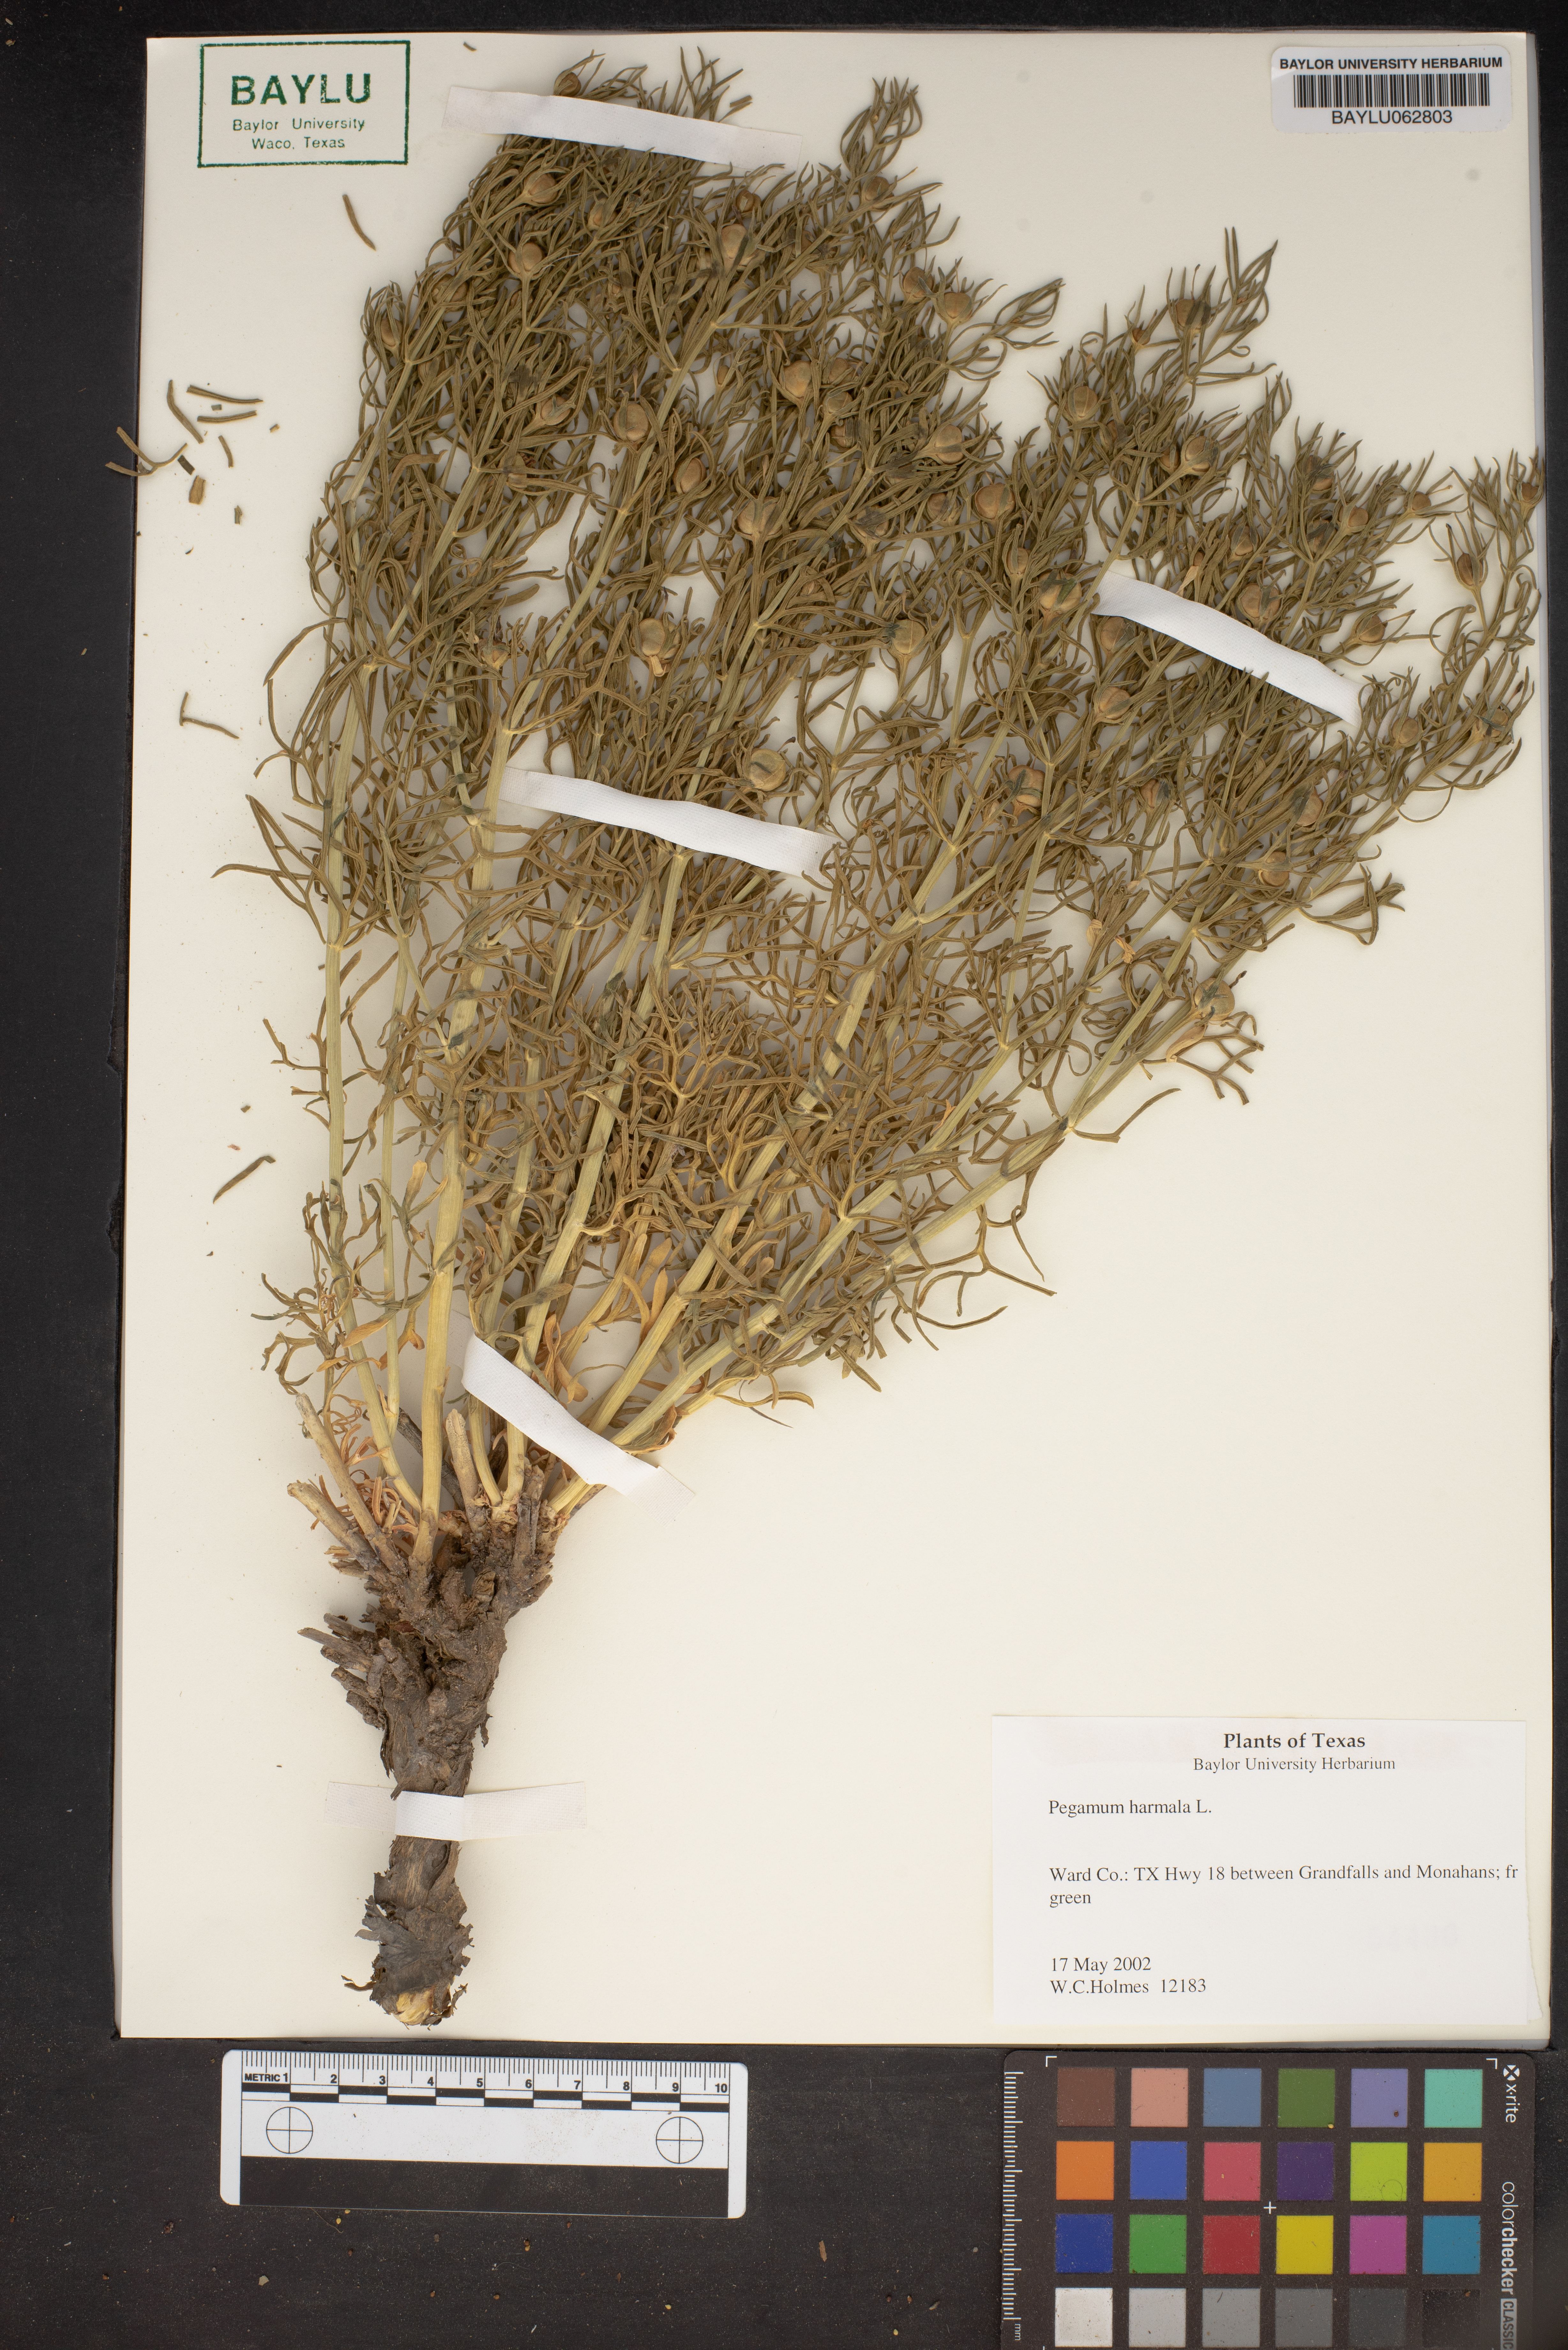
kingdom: Plantae
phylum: Tracheophyta
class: Magnoliopsida
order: Sapindales
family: Tetradiclidaceae
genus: Peganum
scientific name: Peganum harmala
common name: Harmal peganum
